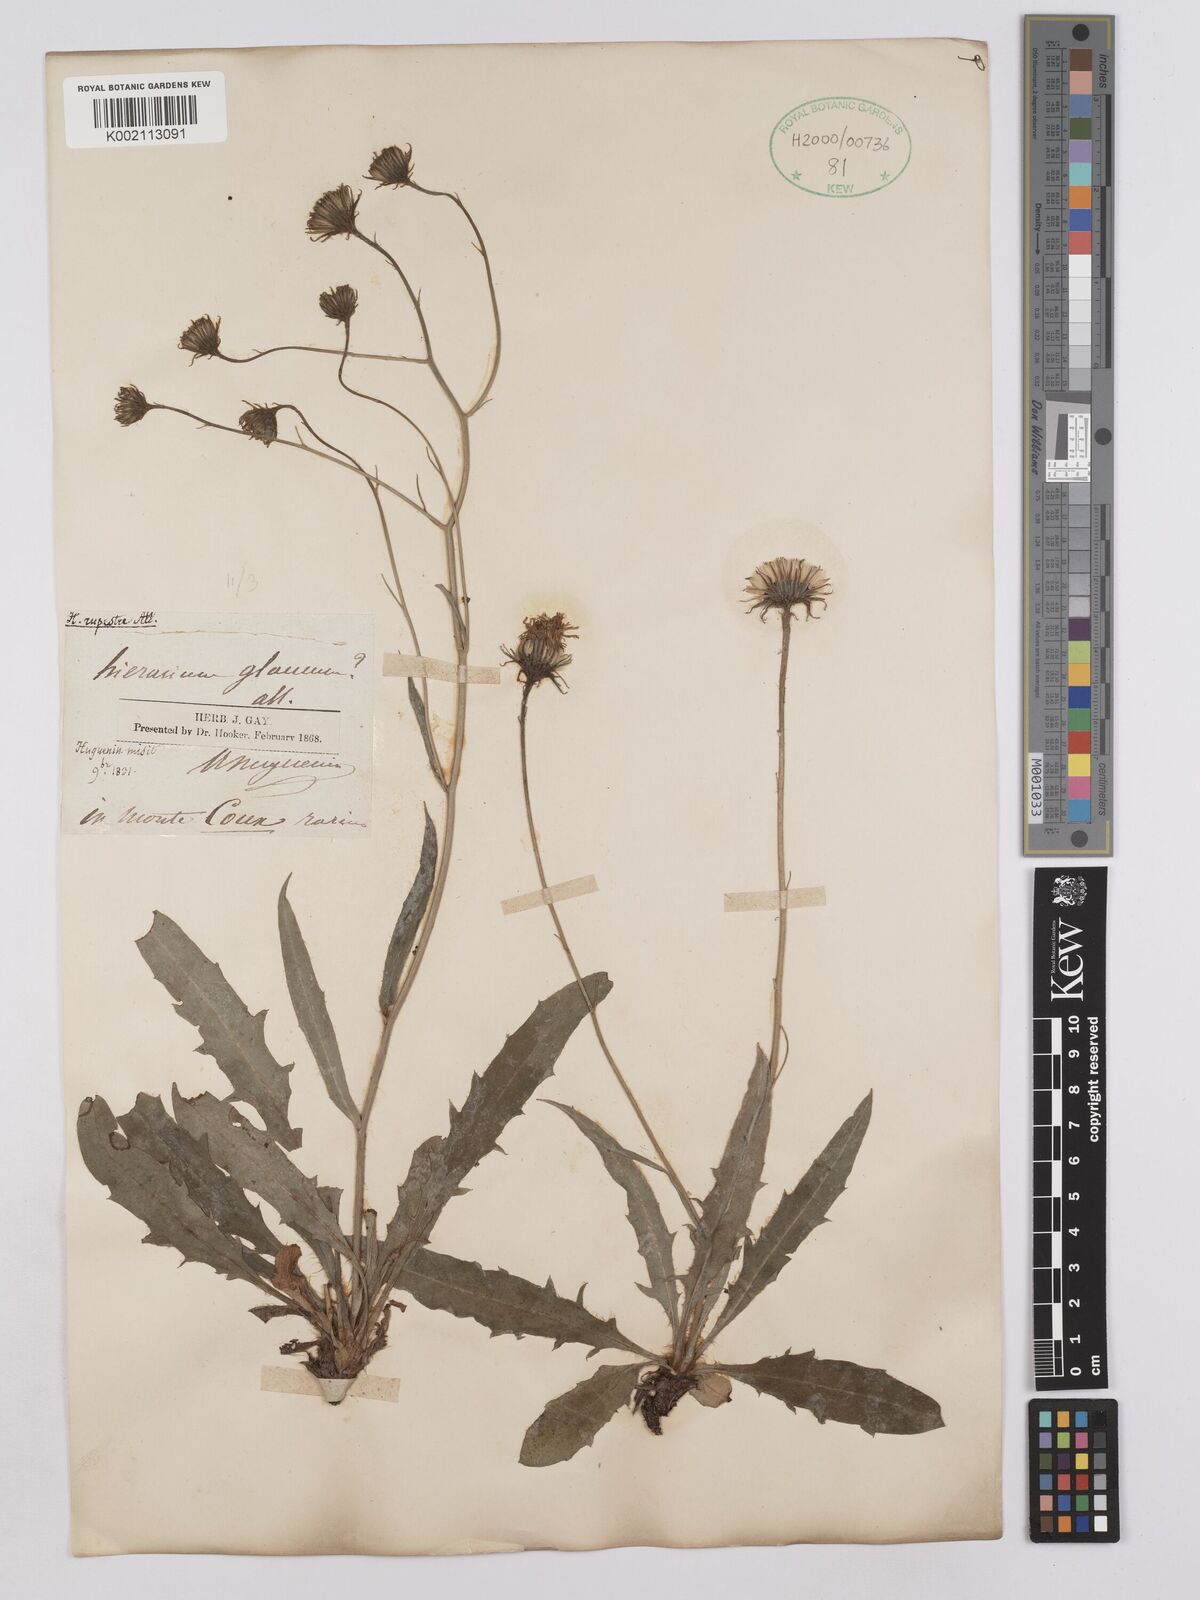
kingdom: Plantae
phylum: Tracheophyta
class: Magnoliopsida
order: Asterales
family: Asteraceae
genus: Hieracium
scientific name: Hieracium glaucum
